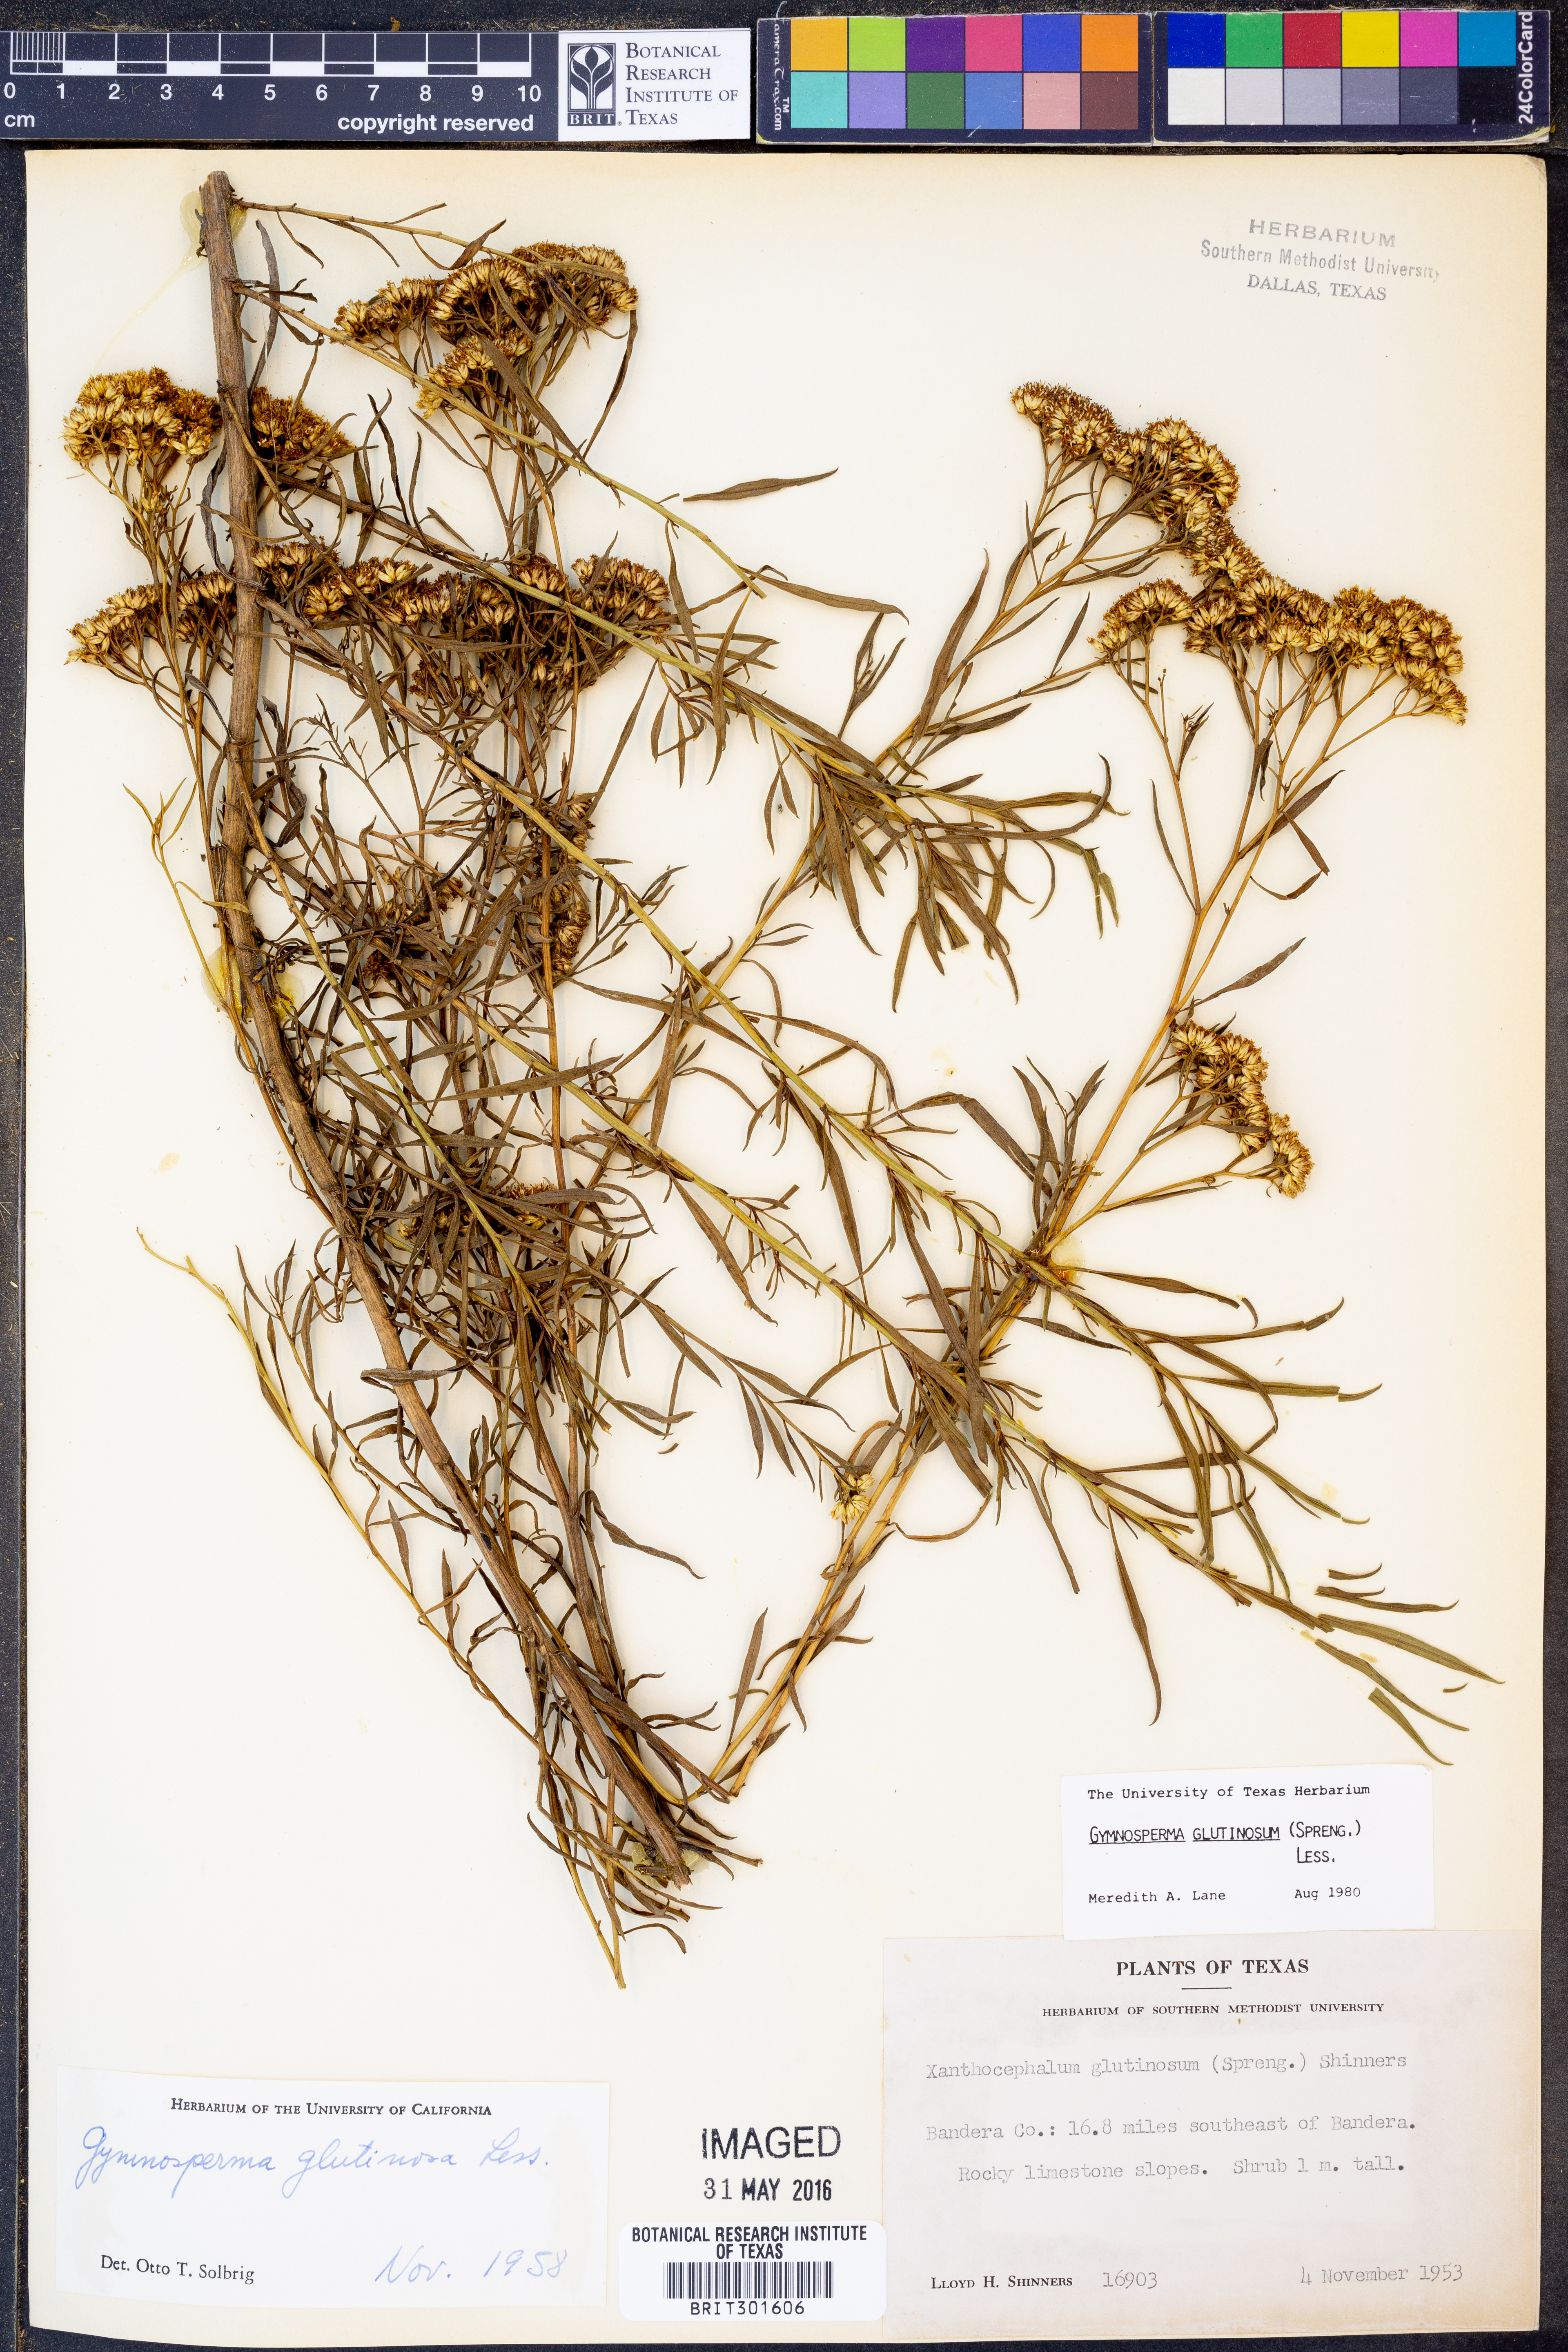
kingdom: Plantae
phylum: Tracheophyta
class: Magnoliopsida
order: Asterales
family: Asteraceae
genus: Gymnosperma
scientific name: Gymnosperma glutinosum
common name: Gumhead
